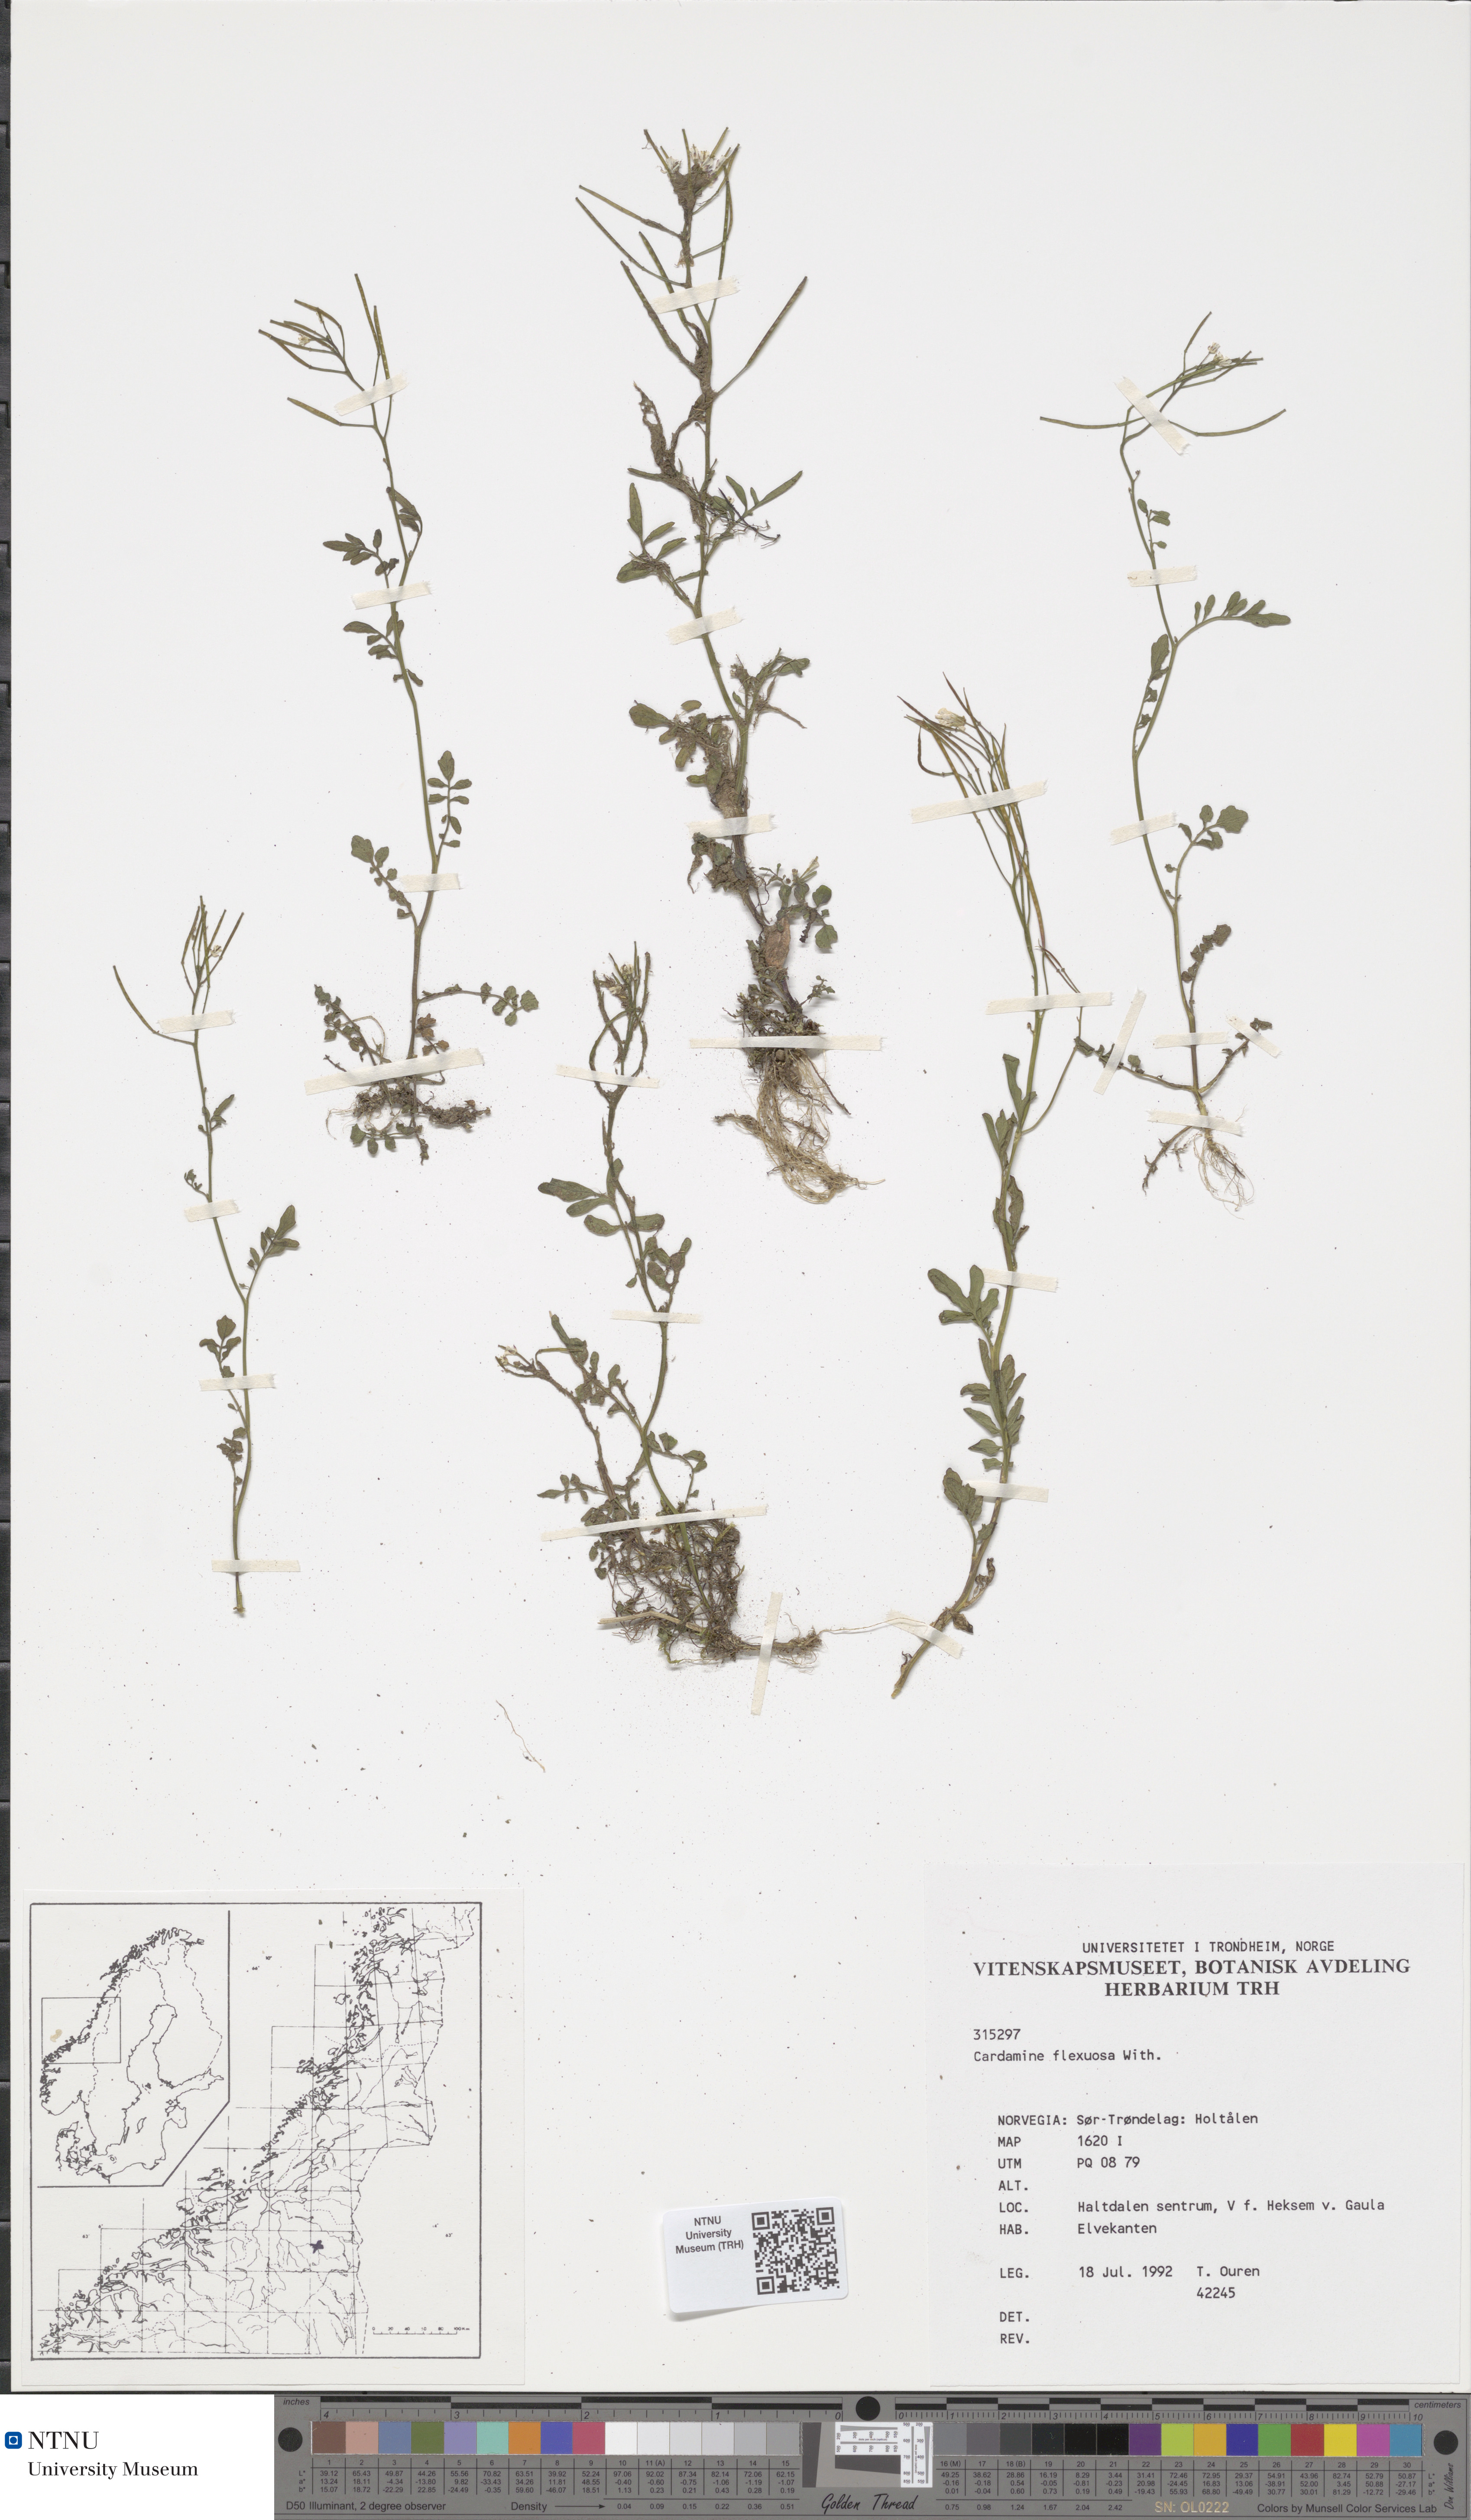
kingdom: Plantae
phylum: Tracheophyta
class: Magnoliopsida
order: Brassicales
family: Brassicaceae
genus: Cardamine
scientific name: Cardamine flexuosa
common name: Woodland bittercress
